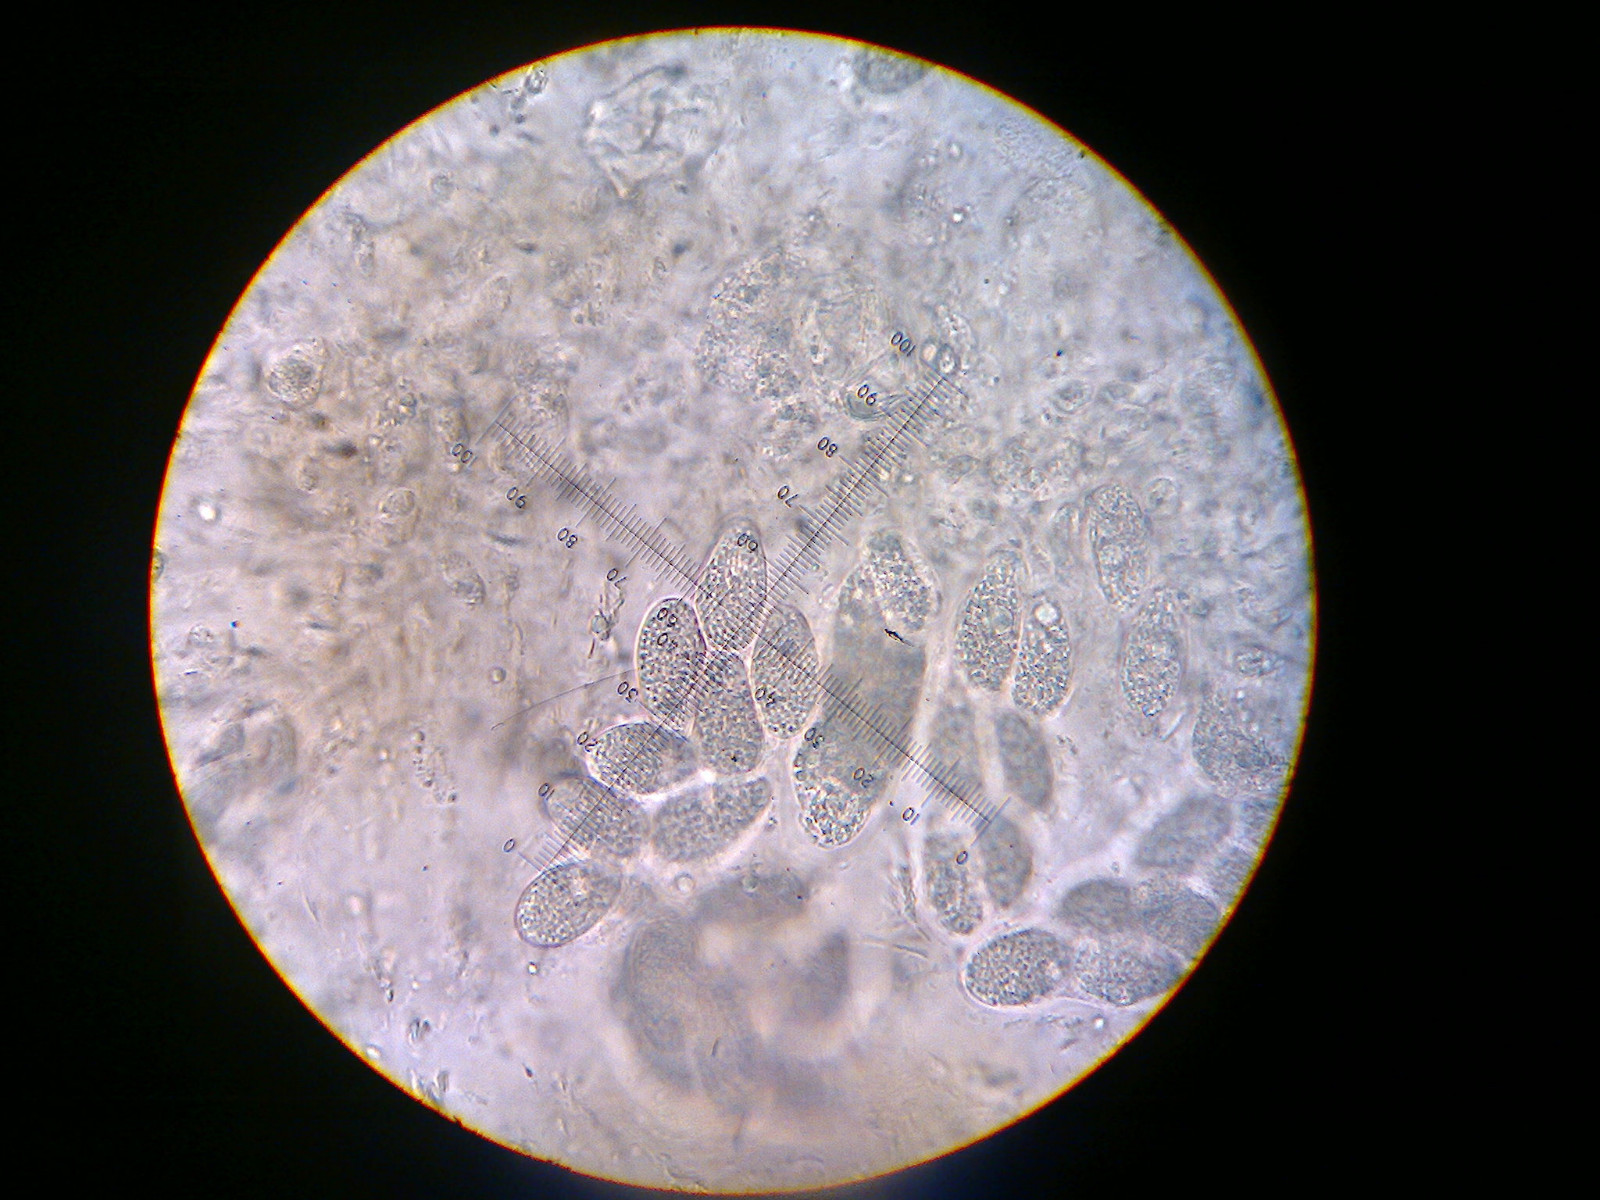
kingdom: Fungi
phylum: Ascomycota
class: Eurotiomycetes
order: Verrucariales
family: Verrucariaceae
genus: Verrucaria
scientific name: Verrucaria murina
